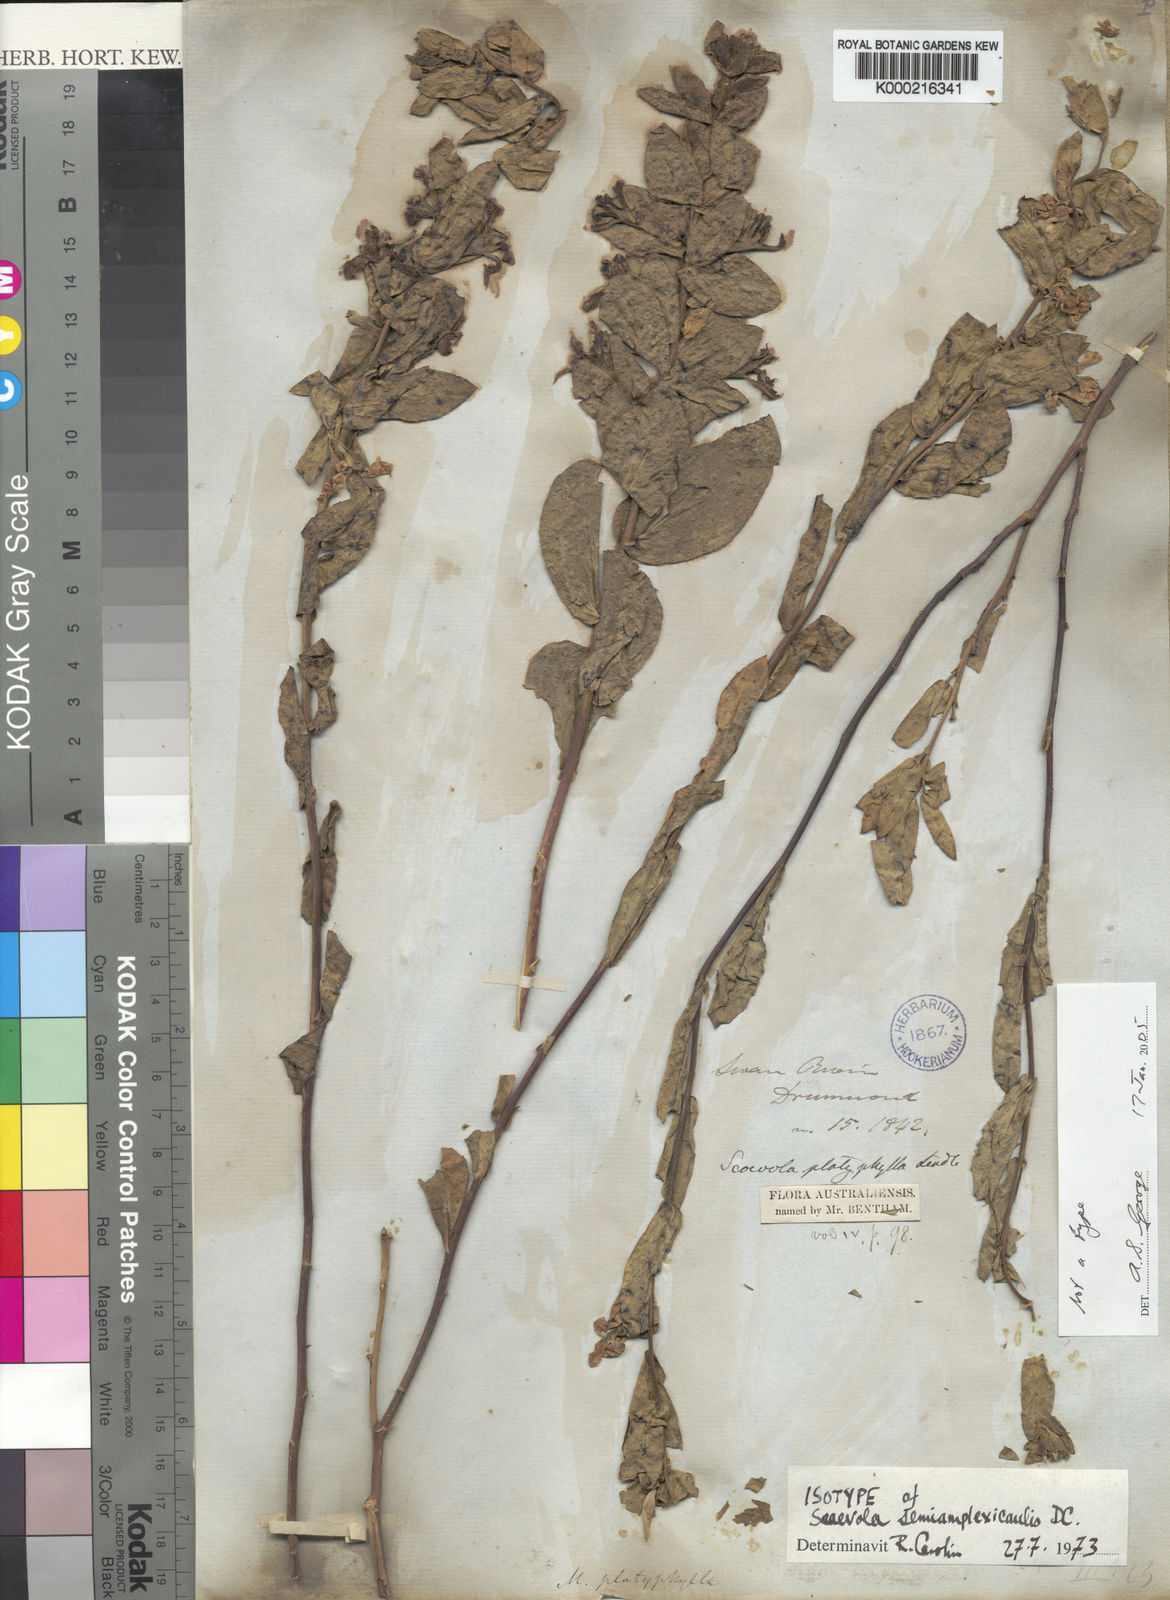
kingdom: Plantae
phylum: Tracheophyta
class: Magnoliopsida
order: Asterales
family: Goodeniaceae
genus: Scaevola
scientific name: Scaevola platyphylla
